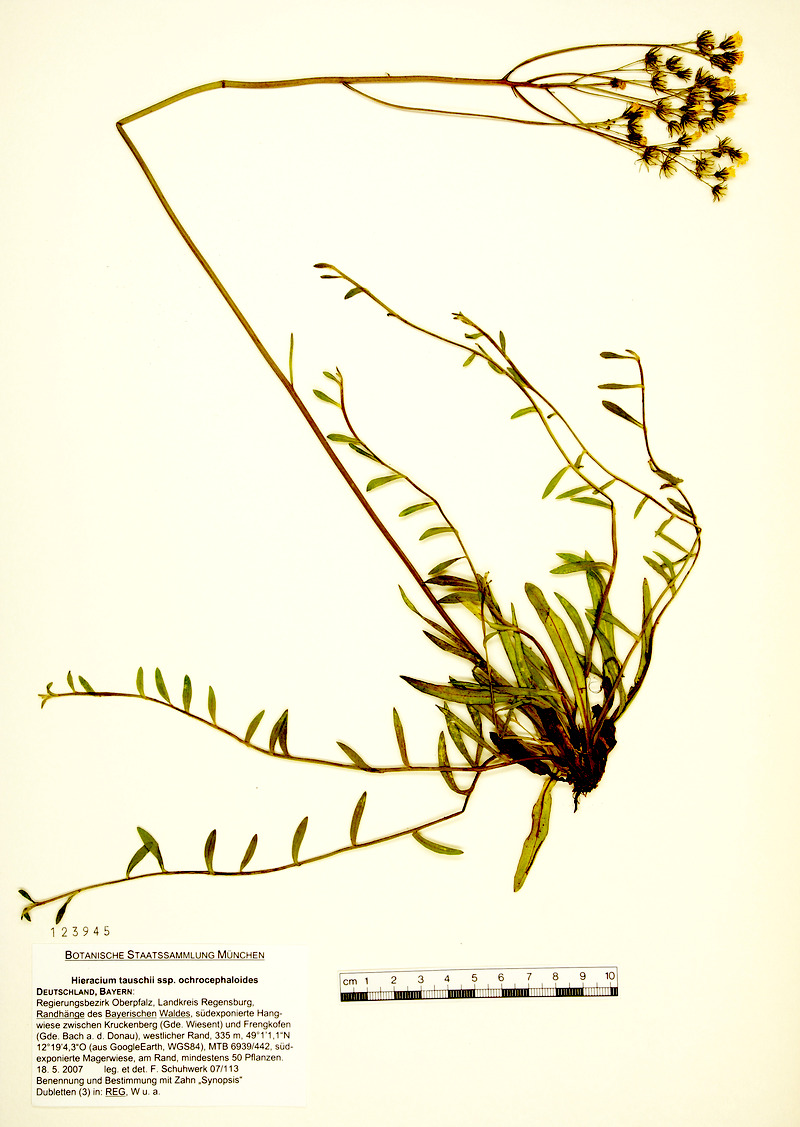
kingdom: Plantae
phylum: Tracheophyta
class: Magnoliopsida
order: Asterales
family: Asteraceae
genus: Pilosella
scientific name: Pilosella densiflora
